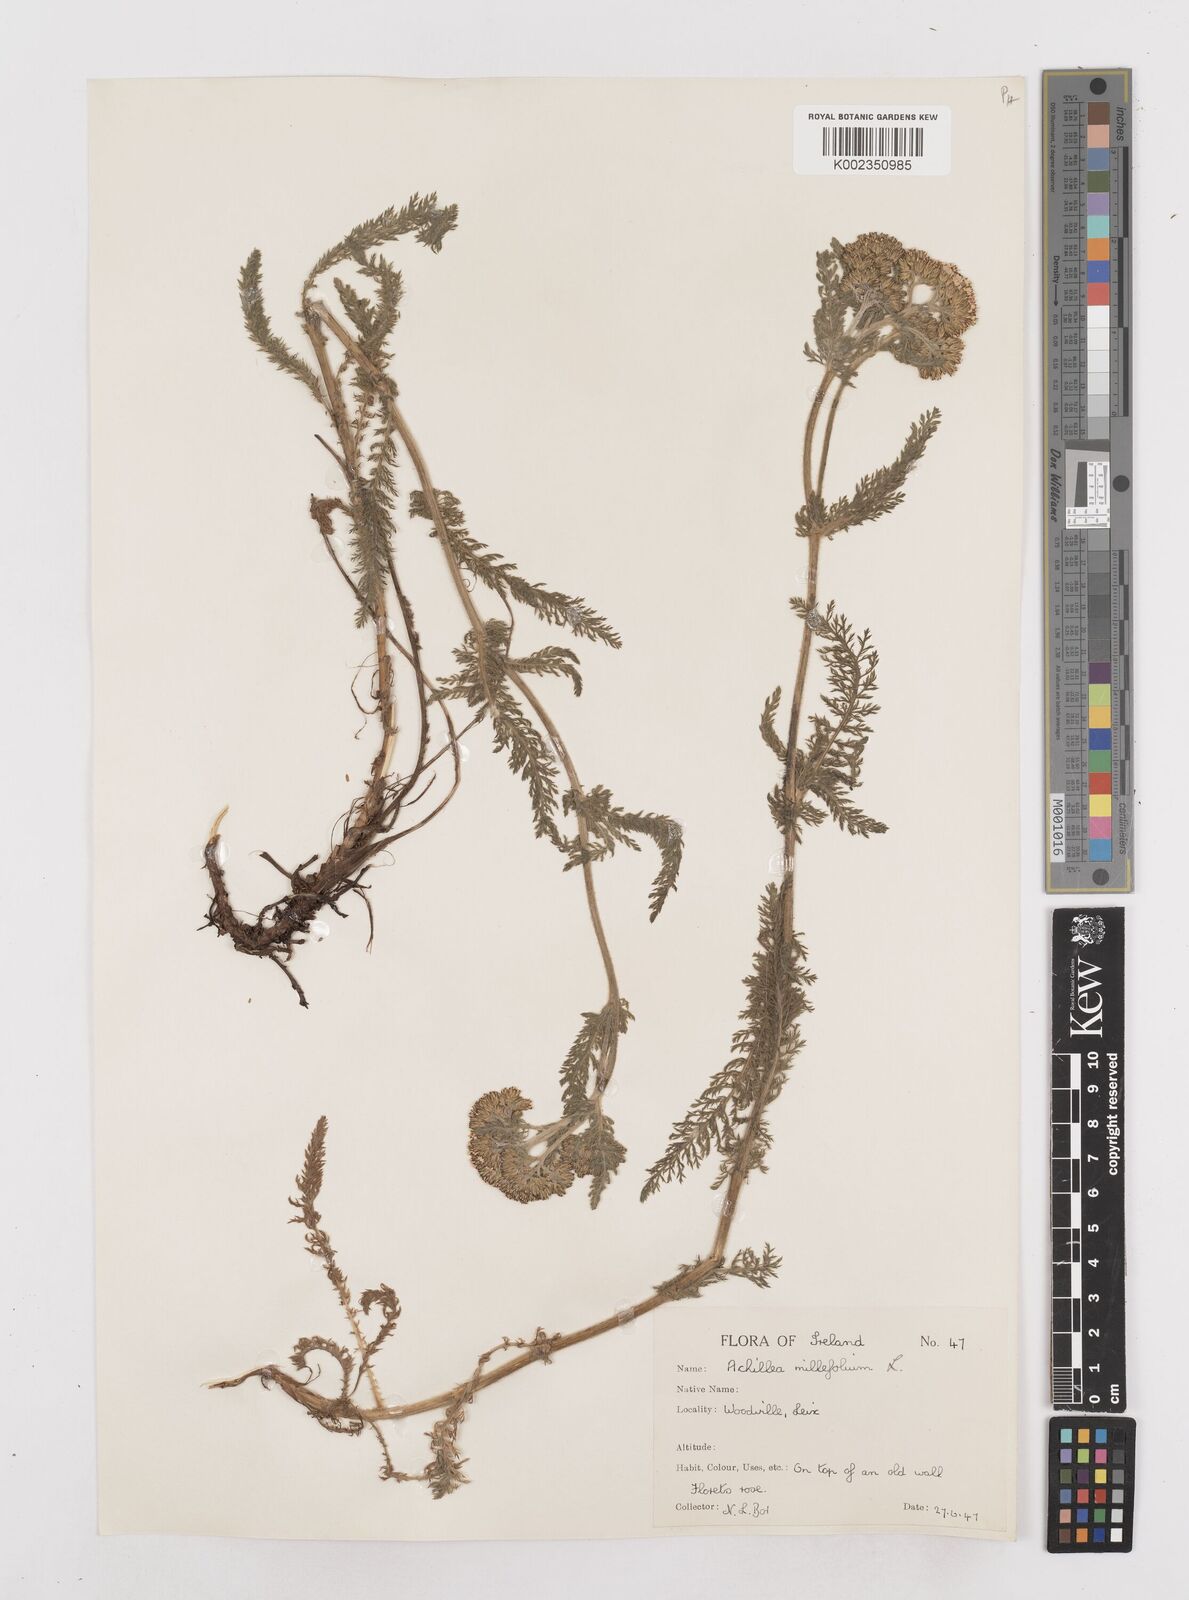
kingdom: Plantae
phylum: Tracheophyta
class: Magnoliopsida
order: Asterales
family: Asteraceae
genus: Achillea
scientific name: Achillea millefolium
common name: Yarrow
